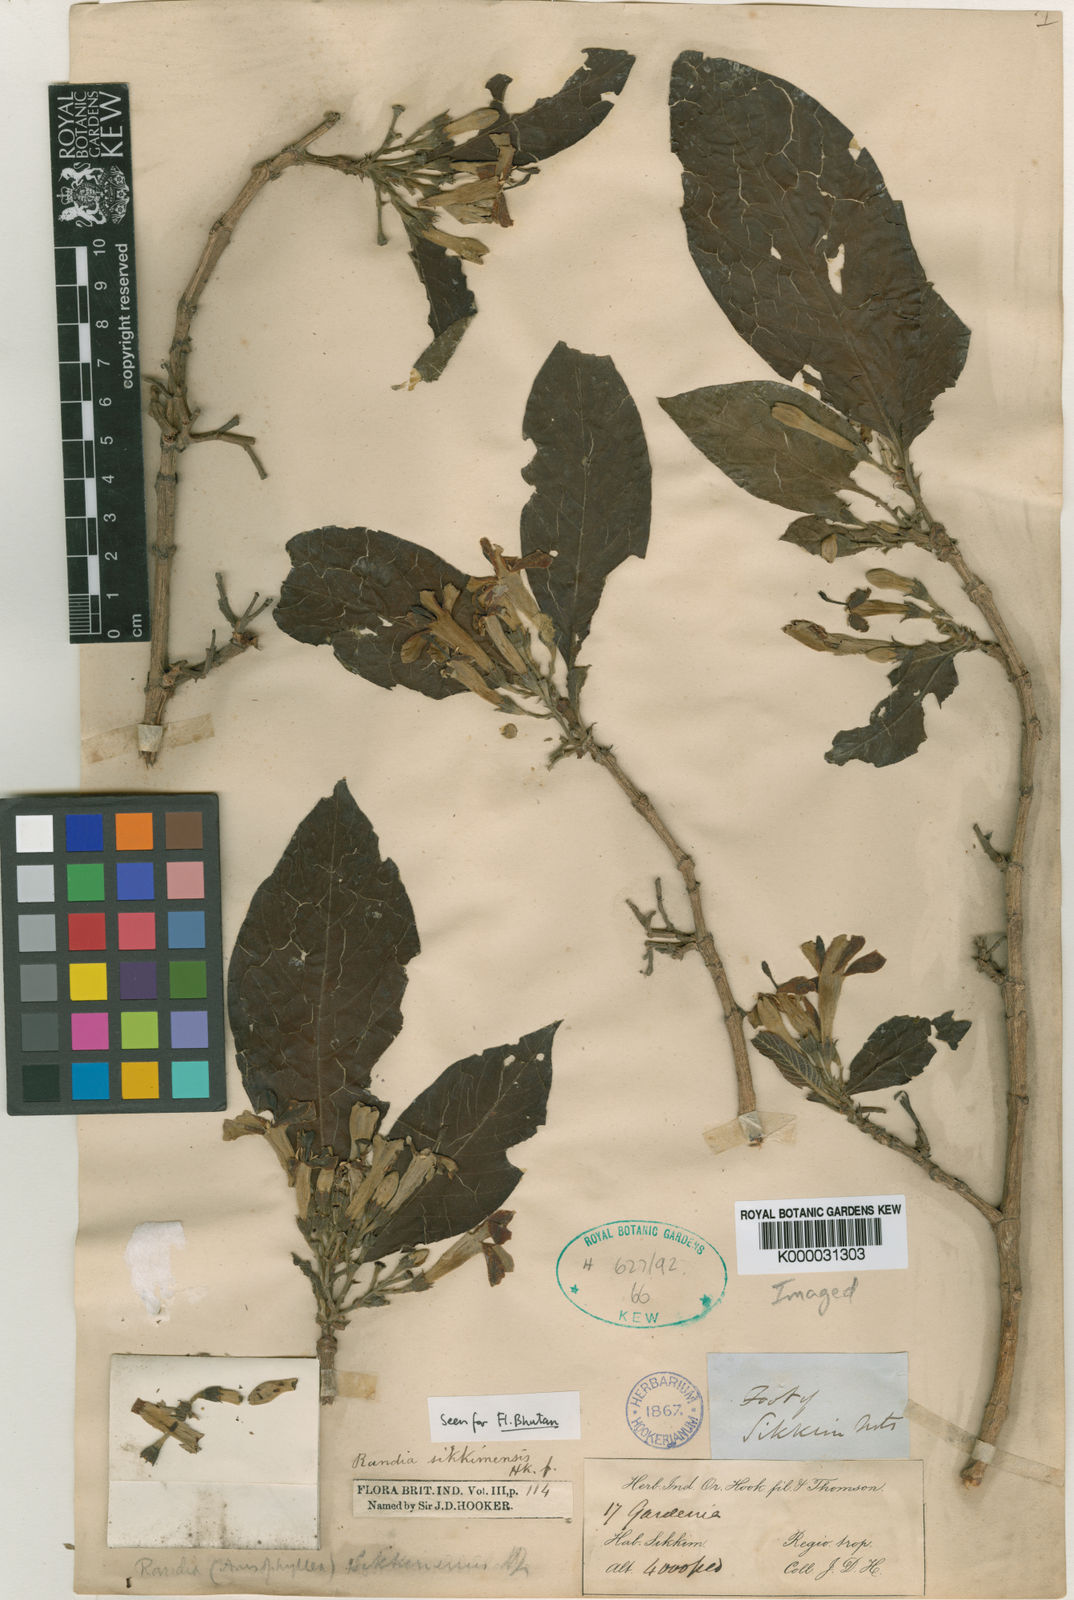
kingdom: Plantae
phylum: Tracheophyta
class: Magnoliopsida
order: Gentianales
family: Rubiaceae
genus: Pitardella
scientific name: Pitardella sikkimensis
